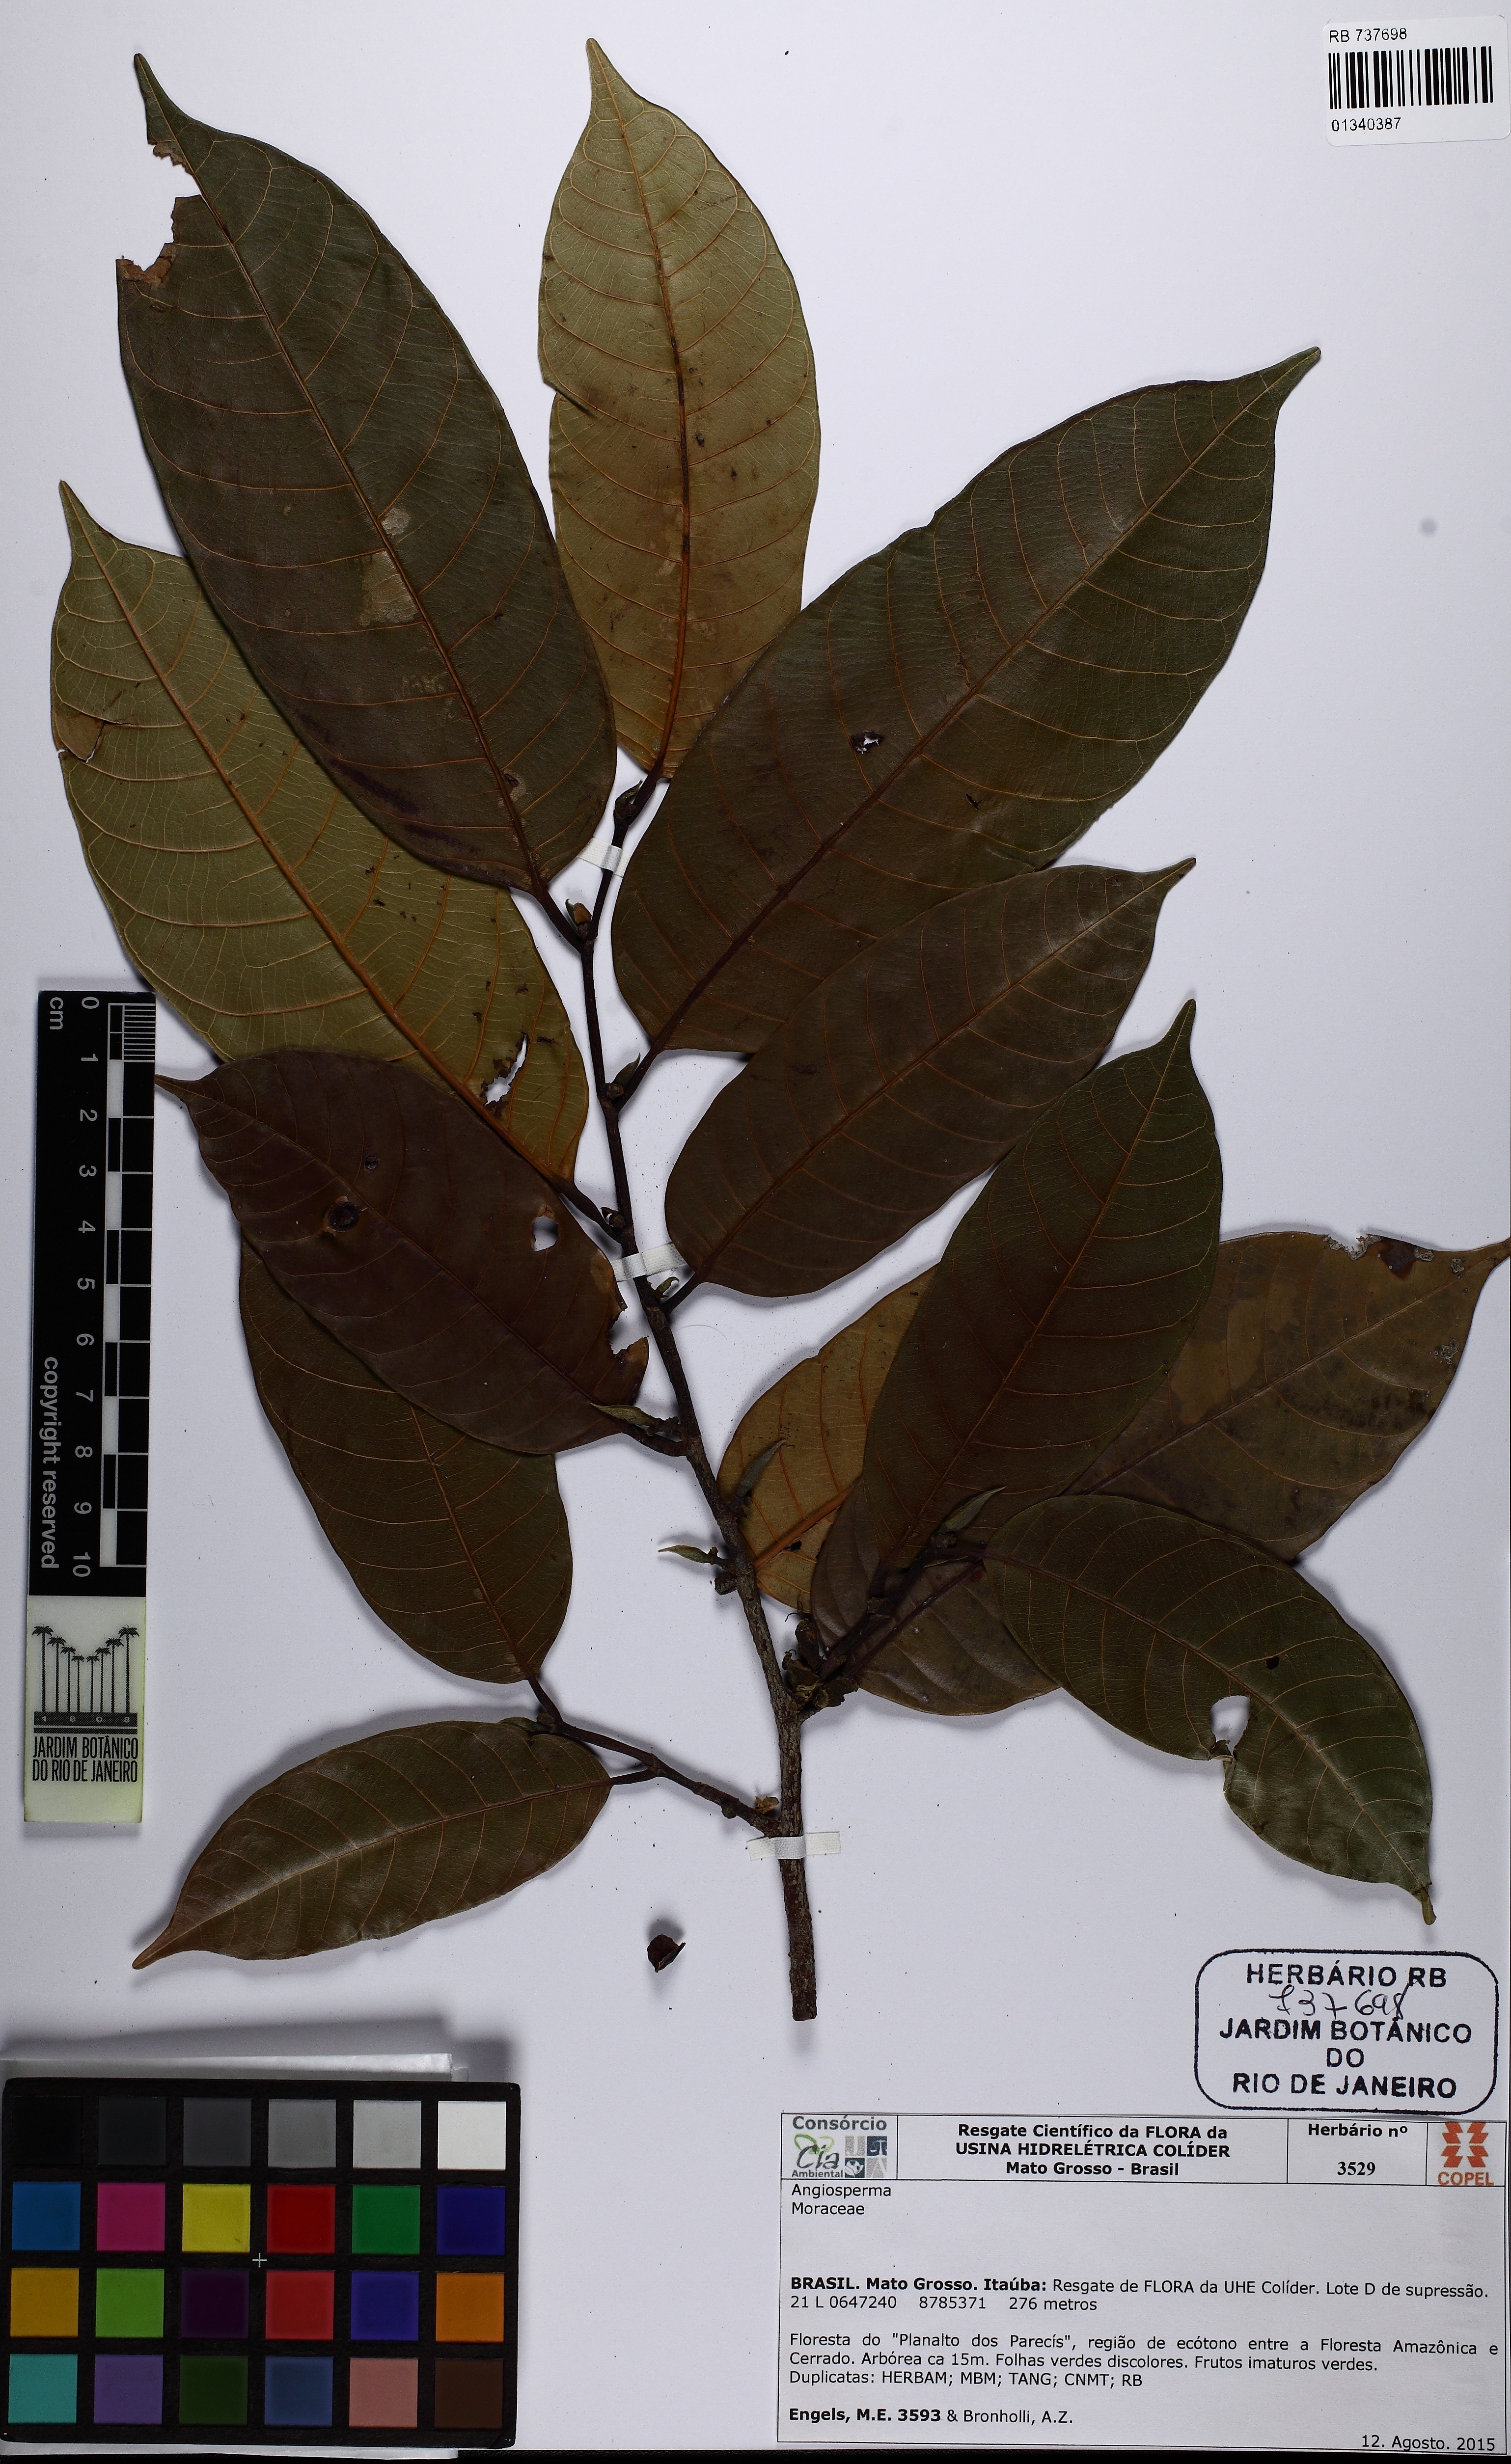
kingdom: Plantae
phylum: Tracheophyta
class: Magnoliopsida
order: Rosales
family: Moraceae
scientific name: Moraceae
